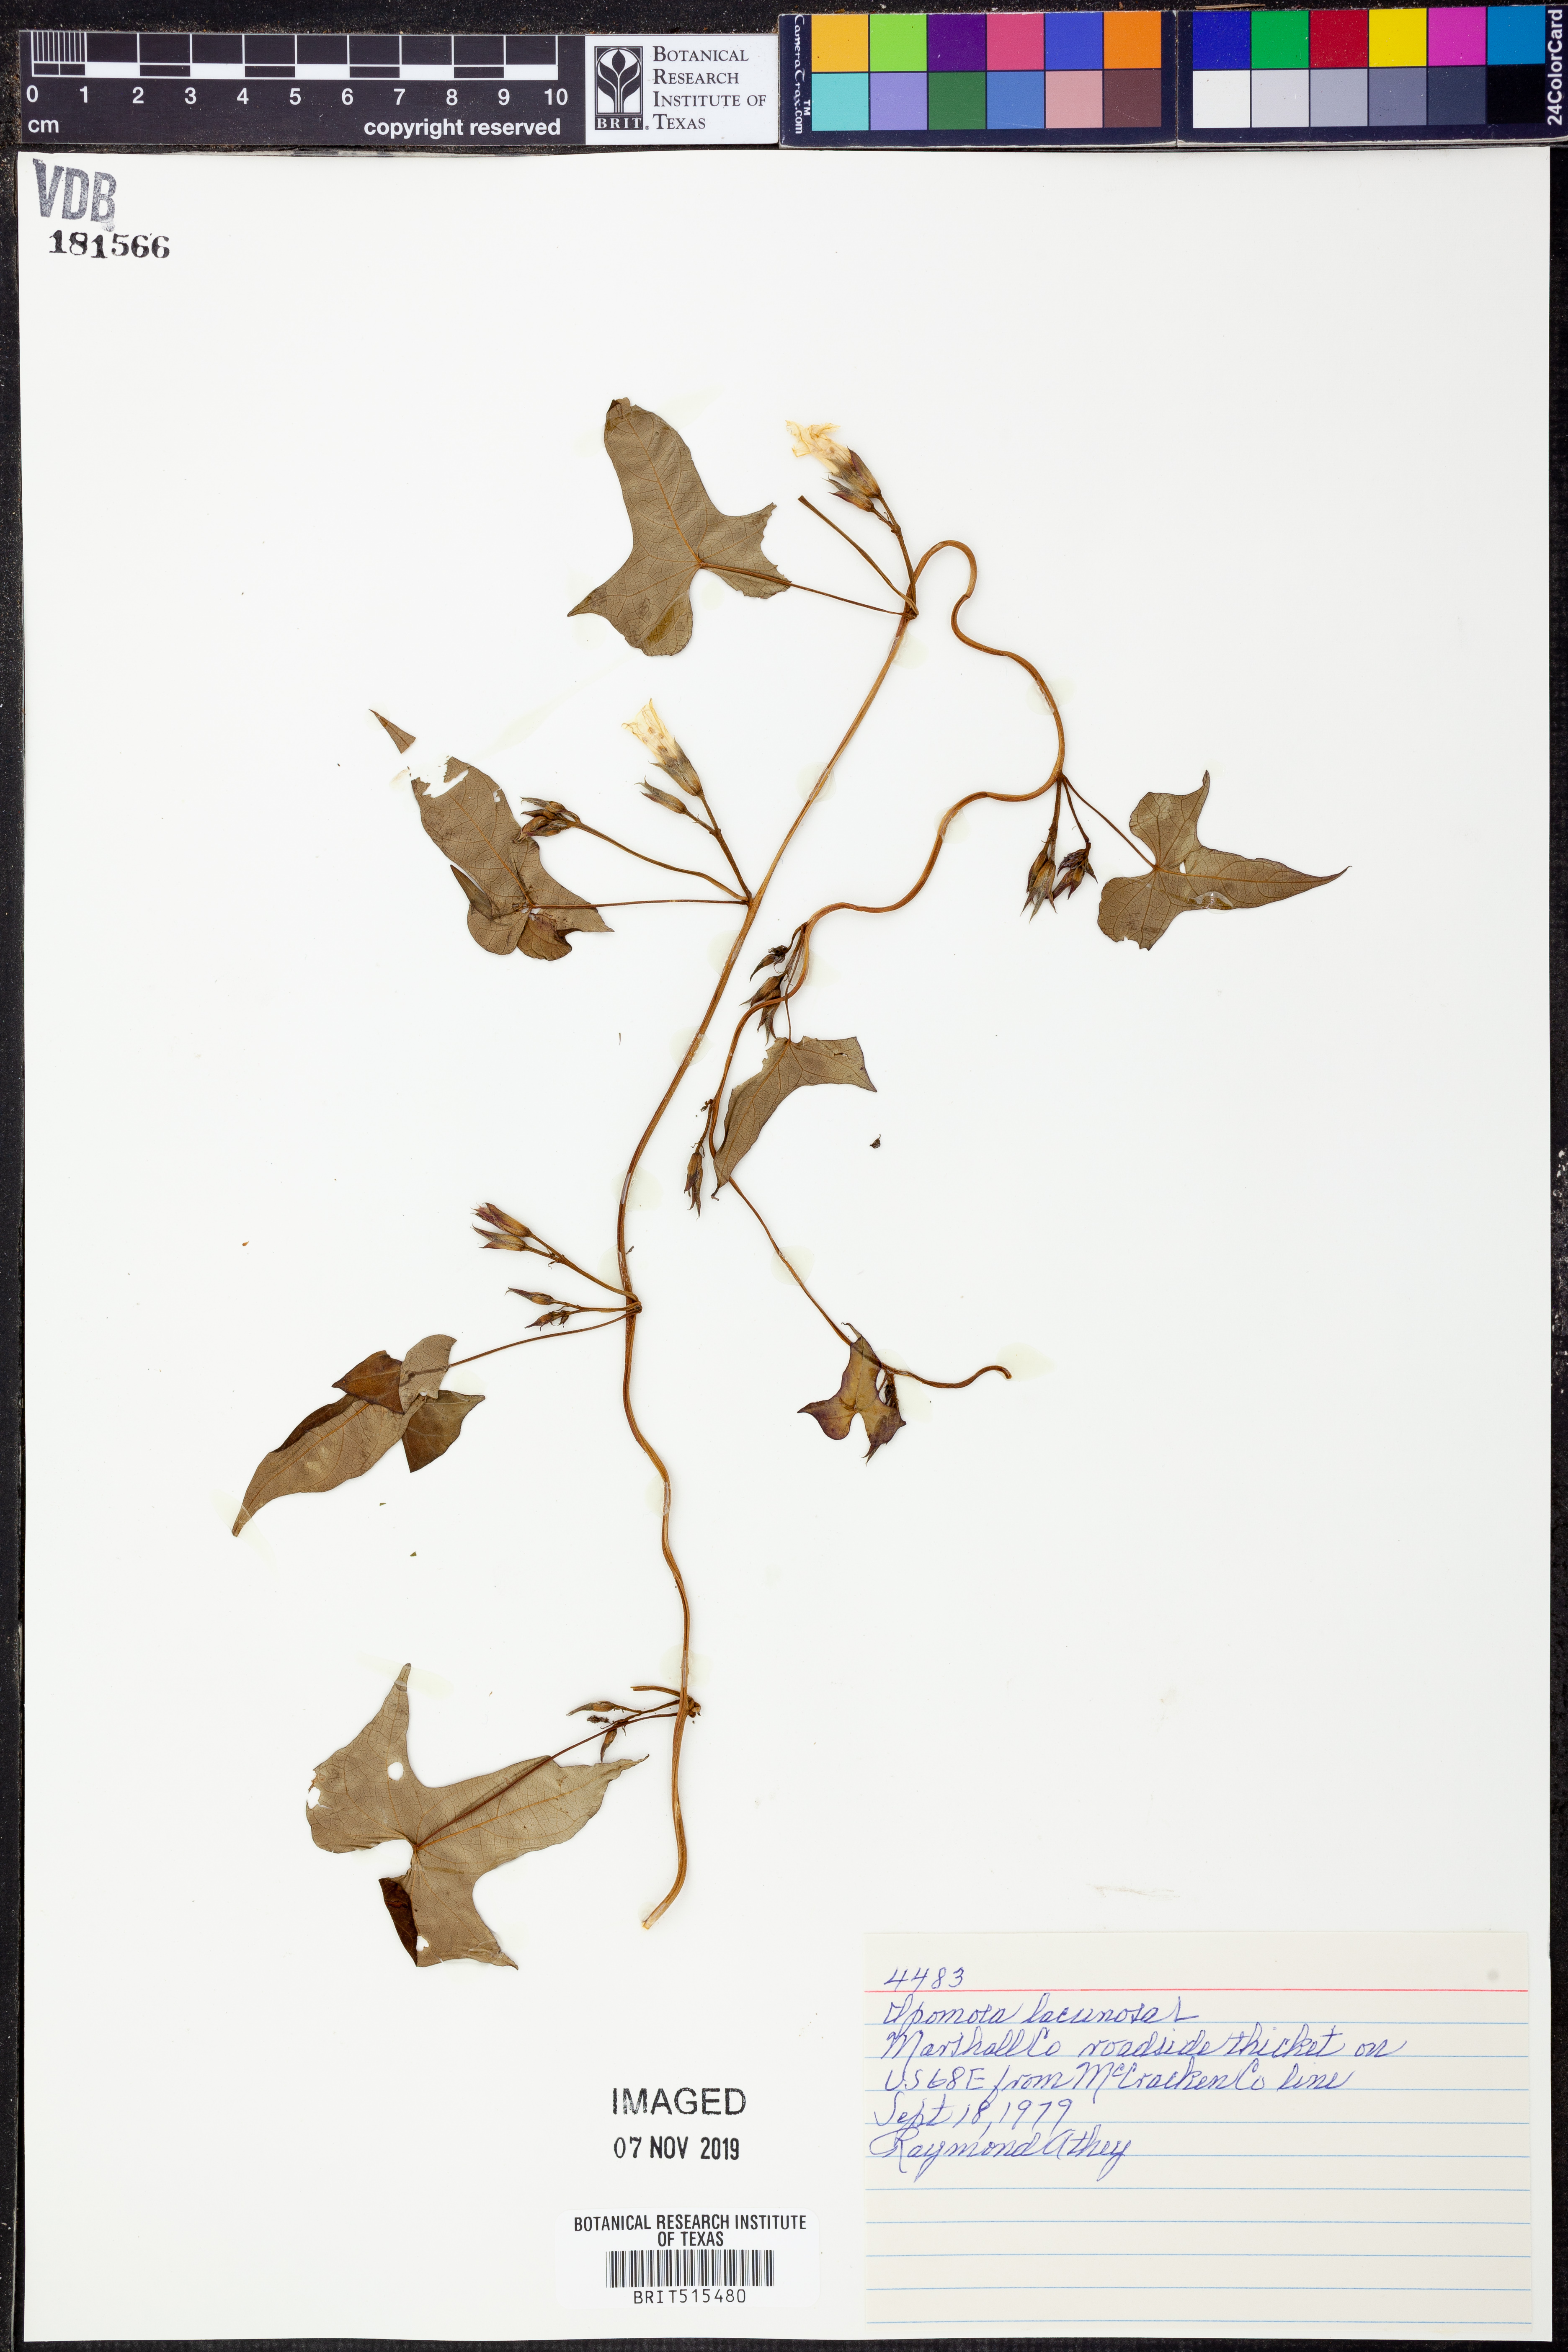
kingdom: Plantae
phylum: Tracheophyta
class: Magnoliopsida
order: Solanales
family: Convolvulaceae
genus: Ipomoea
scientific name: Ipomoea lacunosa
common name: White morning-glory
